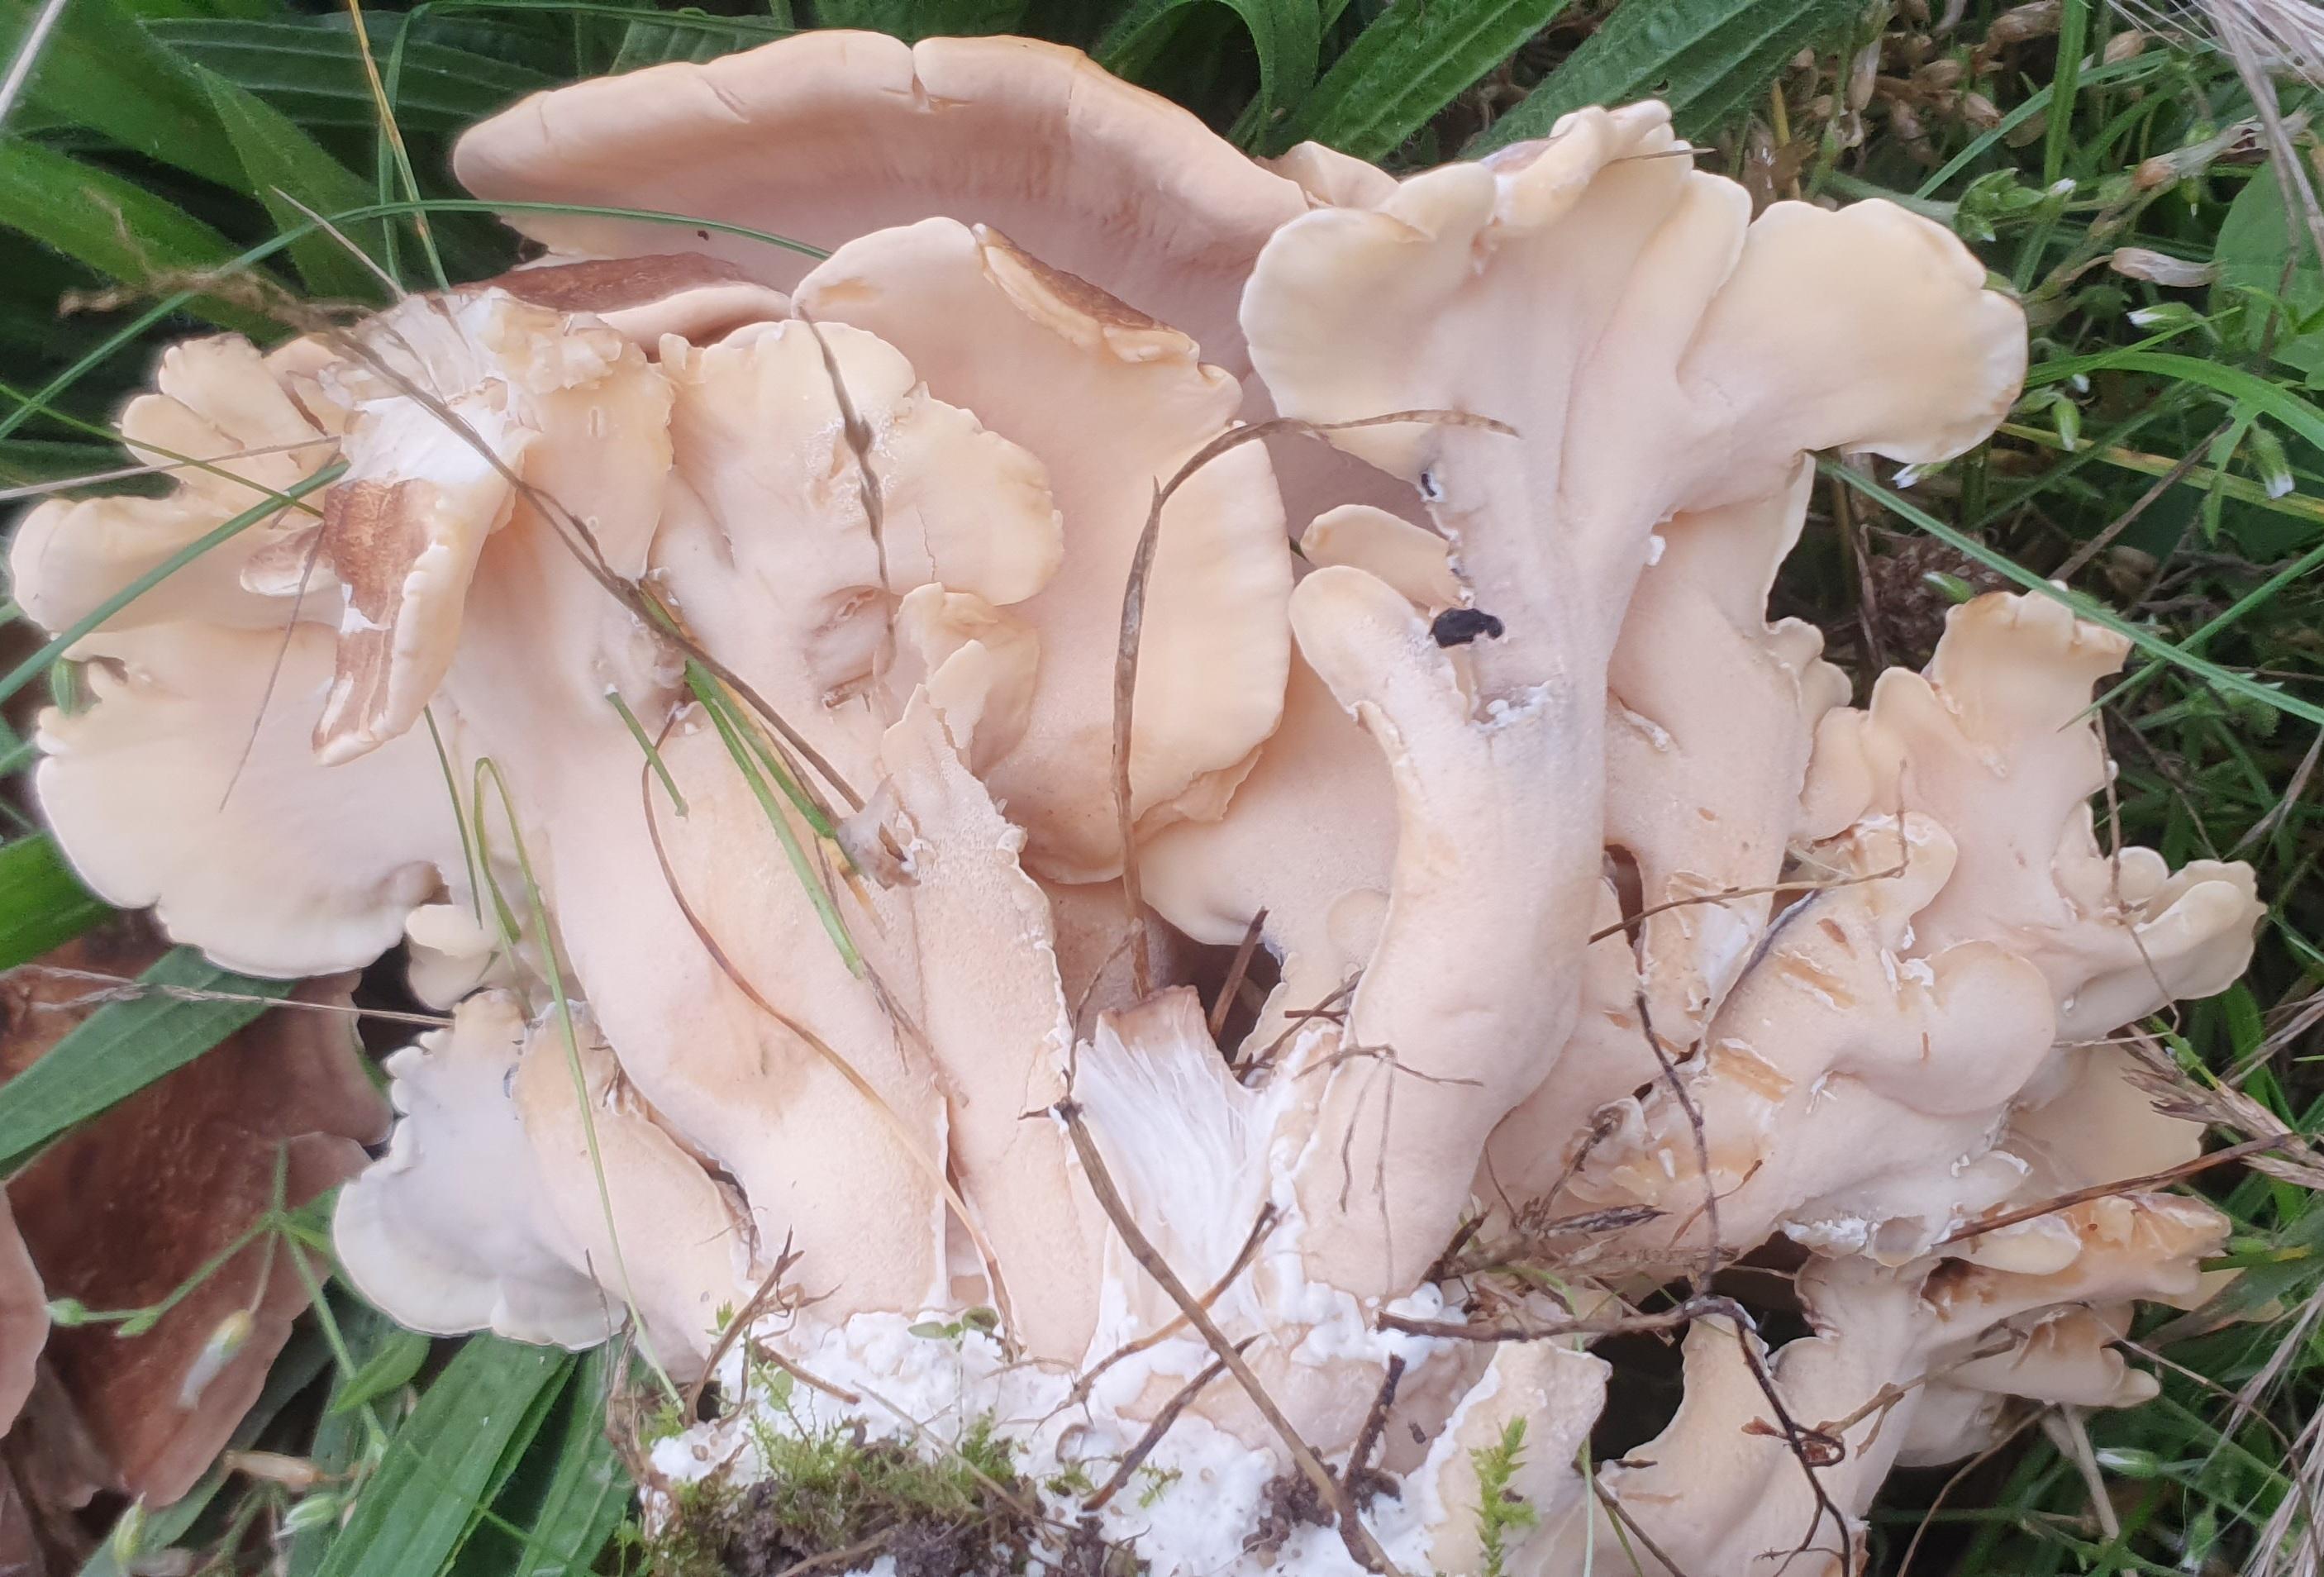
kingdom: Fungi
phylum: Basidiomycota
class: Agaricomycetes
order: Polyporales
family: Meripilaceae
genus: Meripilus
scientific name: Meripilus giganteus
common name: kæmpeporesvamp
